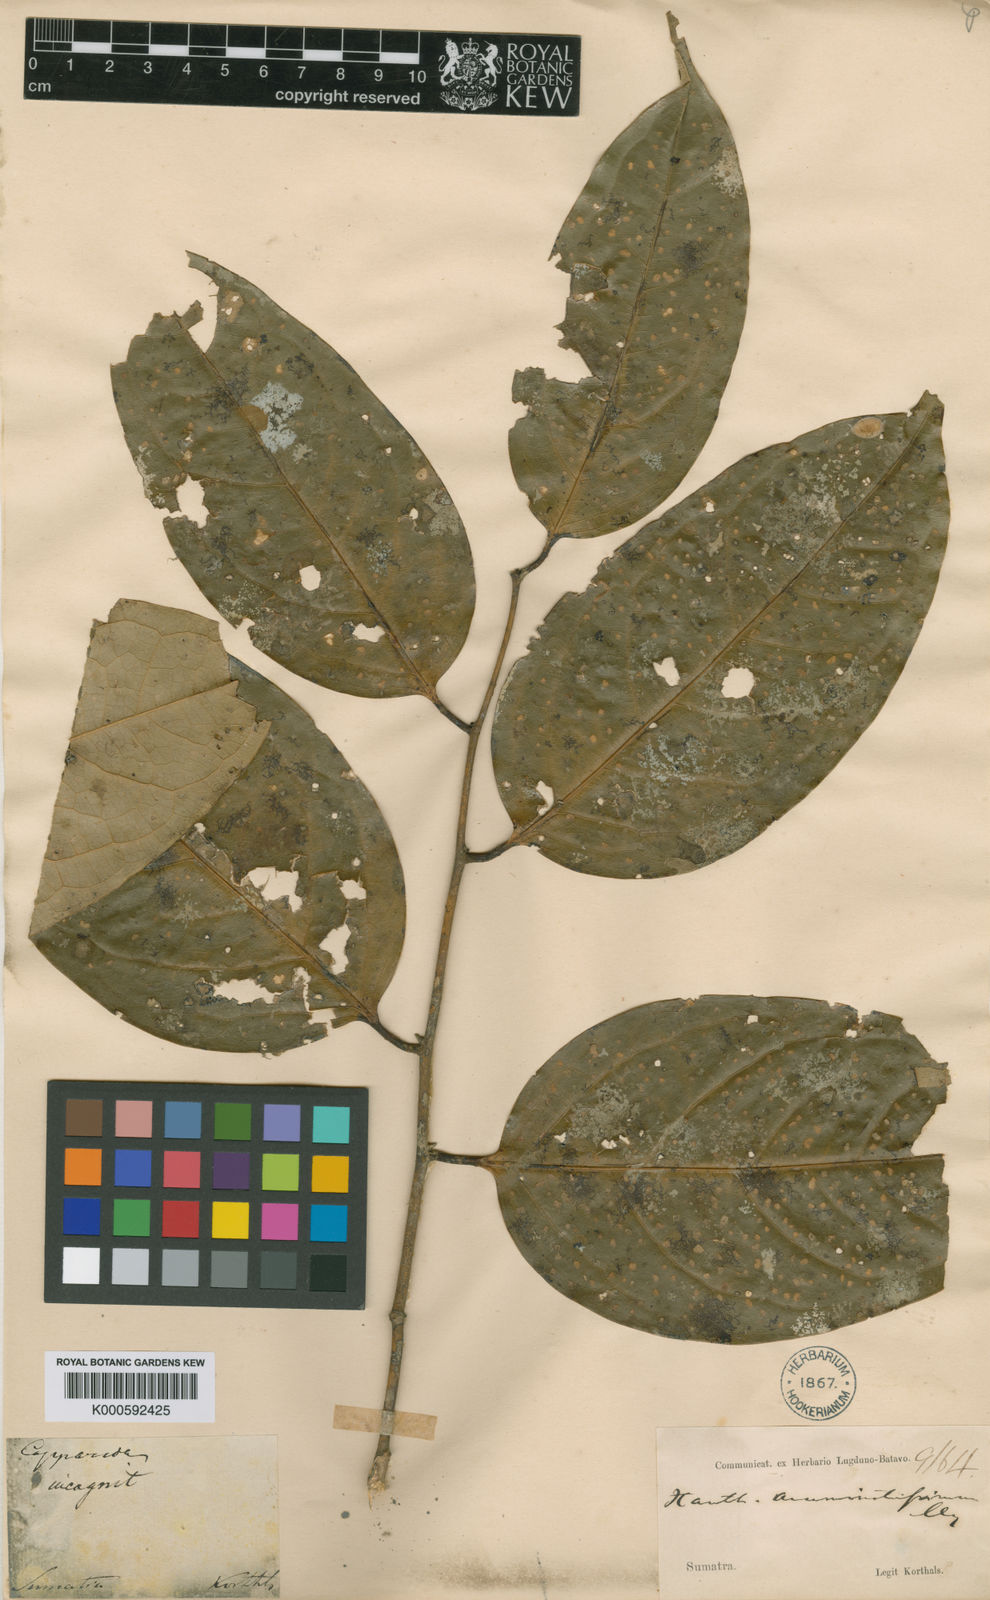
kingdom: Plantae
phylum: Tracheophyta
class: Magnoliopsida
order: Fabales
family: Polygalaceae
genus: Xanthophyllum
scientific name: Xanthophyllum incertum
